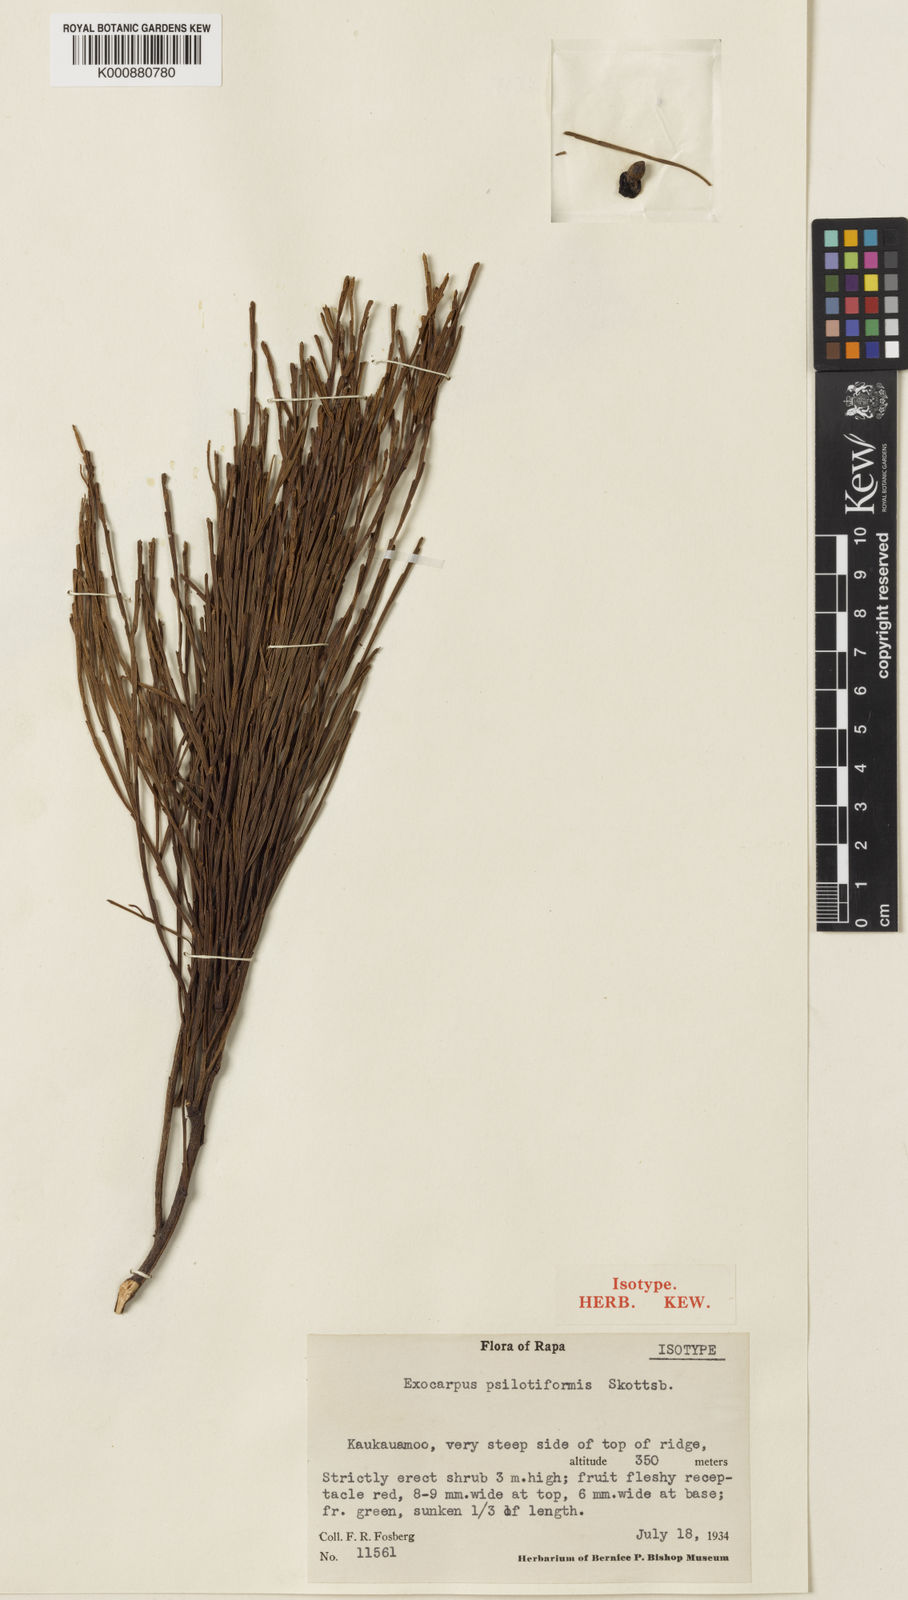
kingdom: Plantae
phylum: Tracheophyta
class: Magnoliopsida
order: Santalales
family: Santalaceae
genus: Exocarpos
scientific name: Exocarpos psilotiformis
